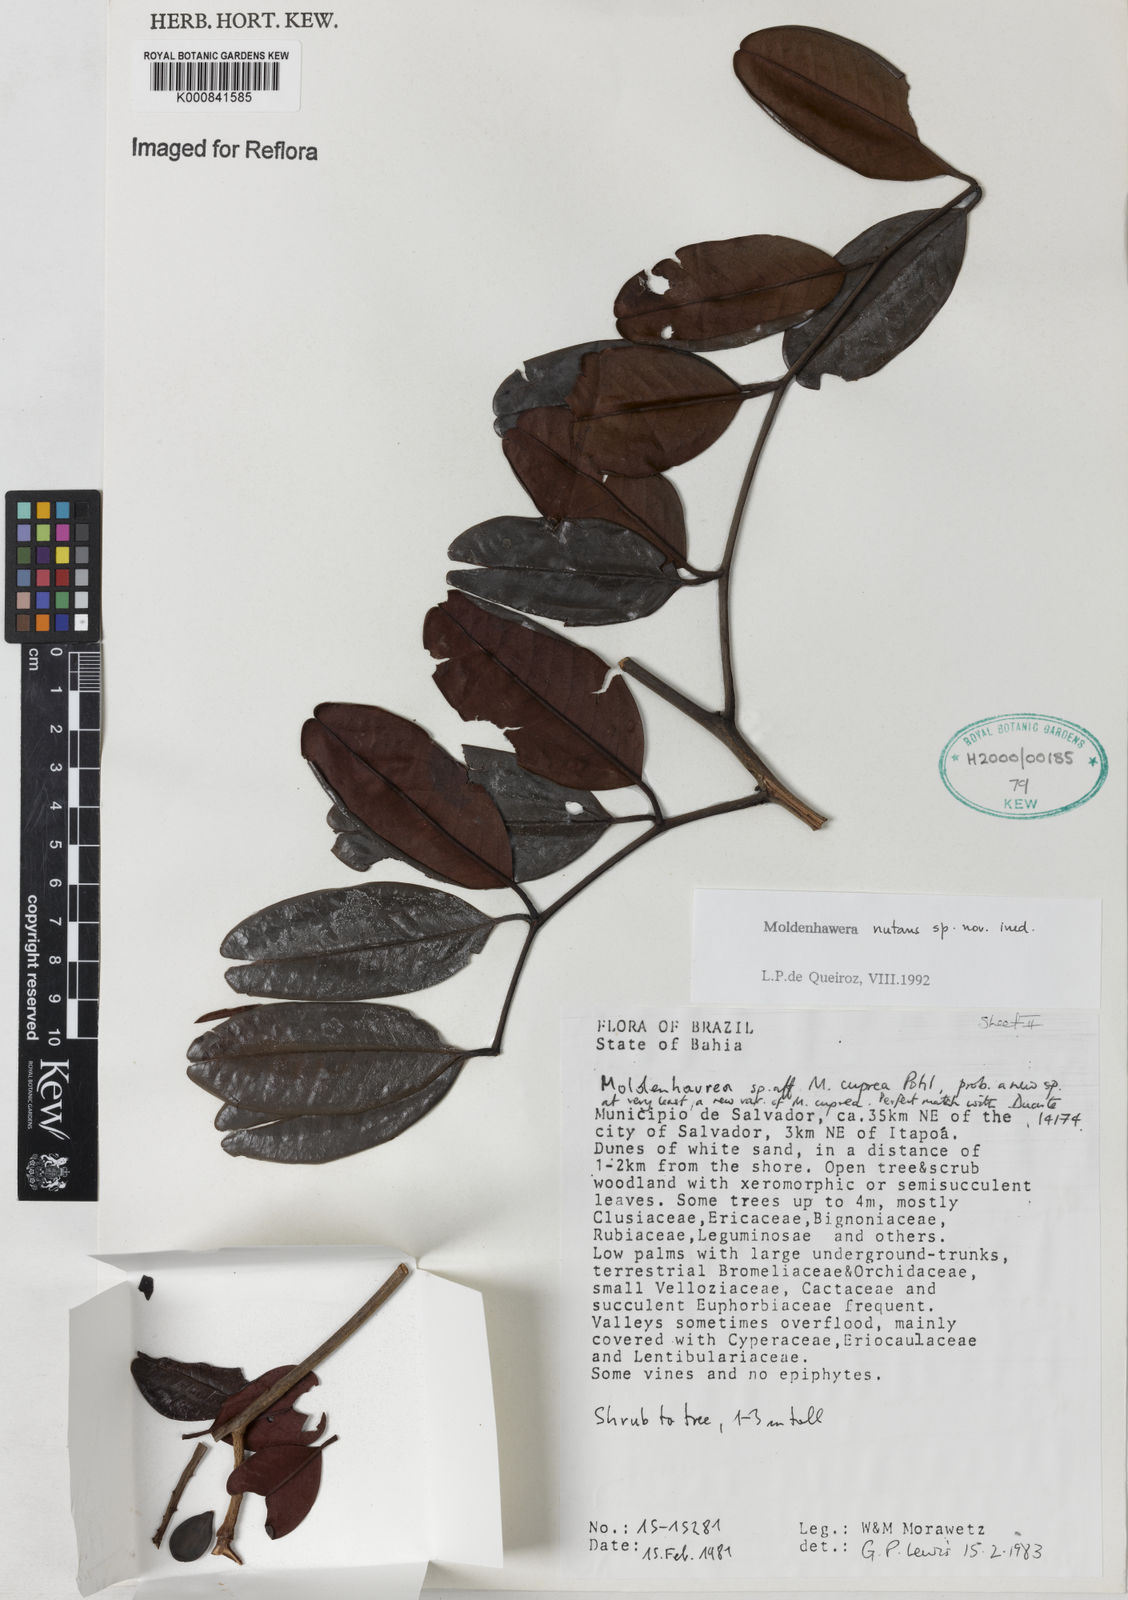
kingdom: Plantae
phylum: Tracheophyta
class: Magnoliopsida
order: Fabales
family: Fabaceae
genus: Moldenhawera
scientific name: Moldenhawera
